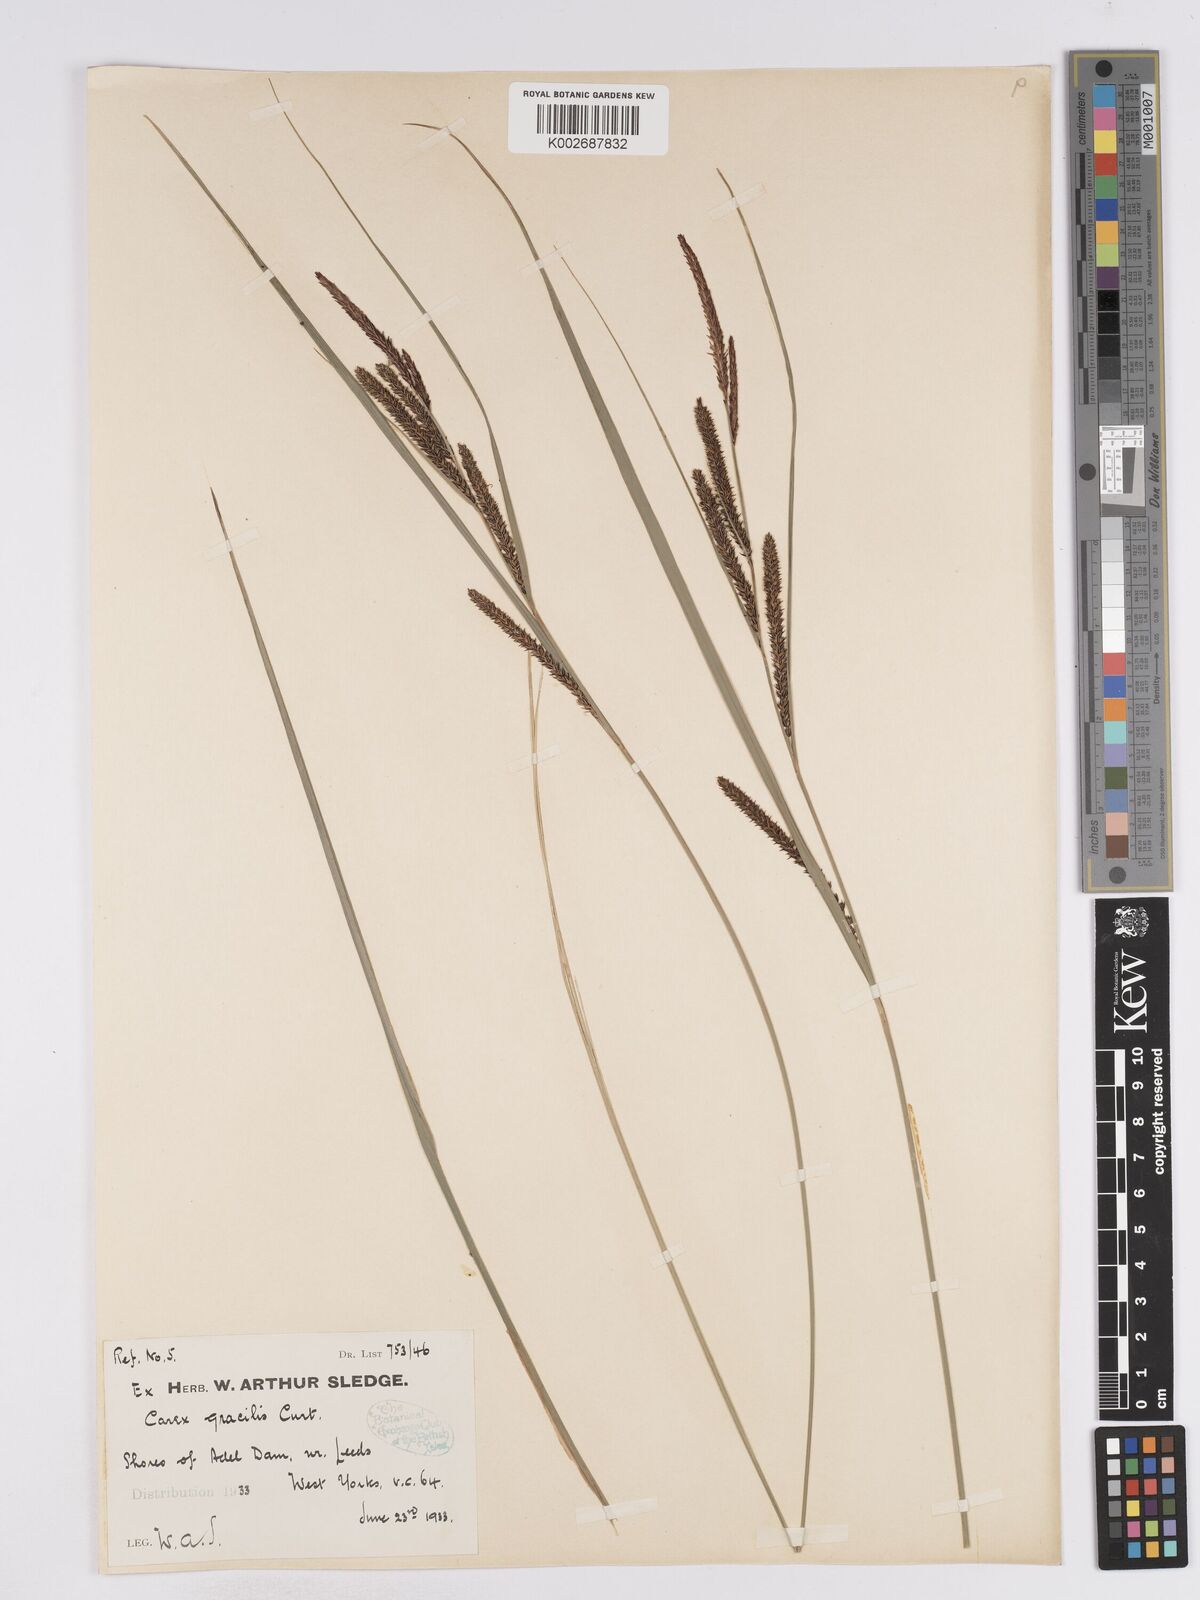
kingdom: Plantae
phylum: Tracheophyta
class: Liliopsida
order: Poales
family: Cyperaceae
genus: Carex
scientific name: Carex acuta
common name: Slender tufted-sedge
